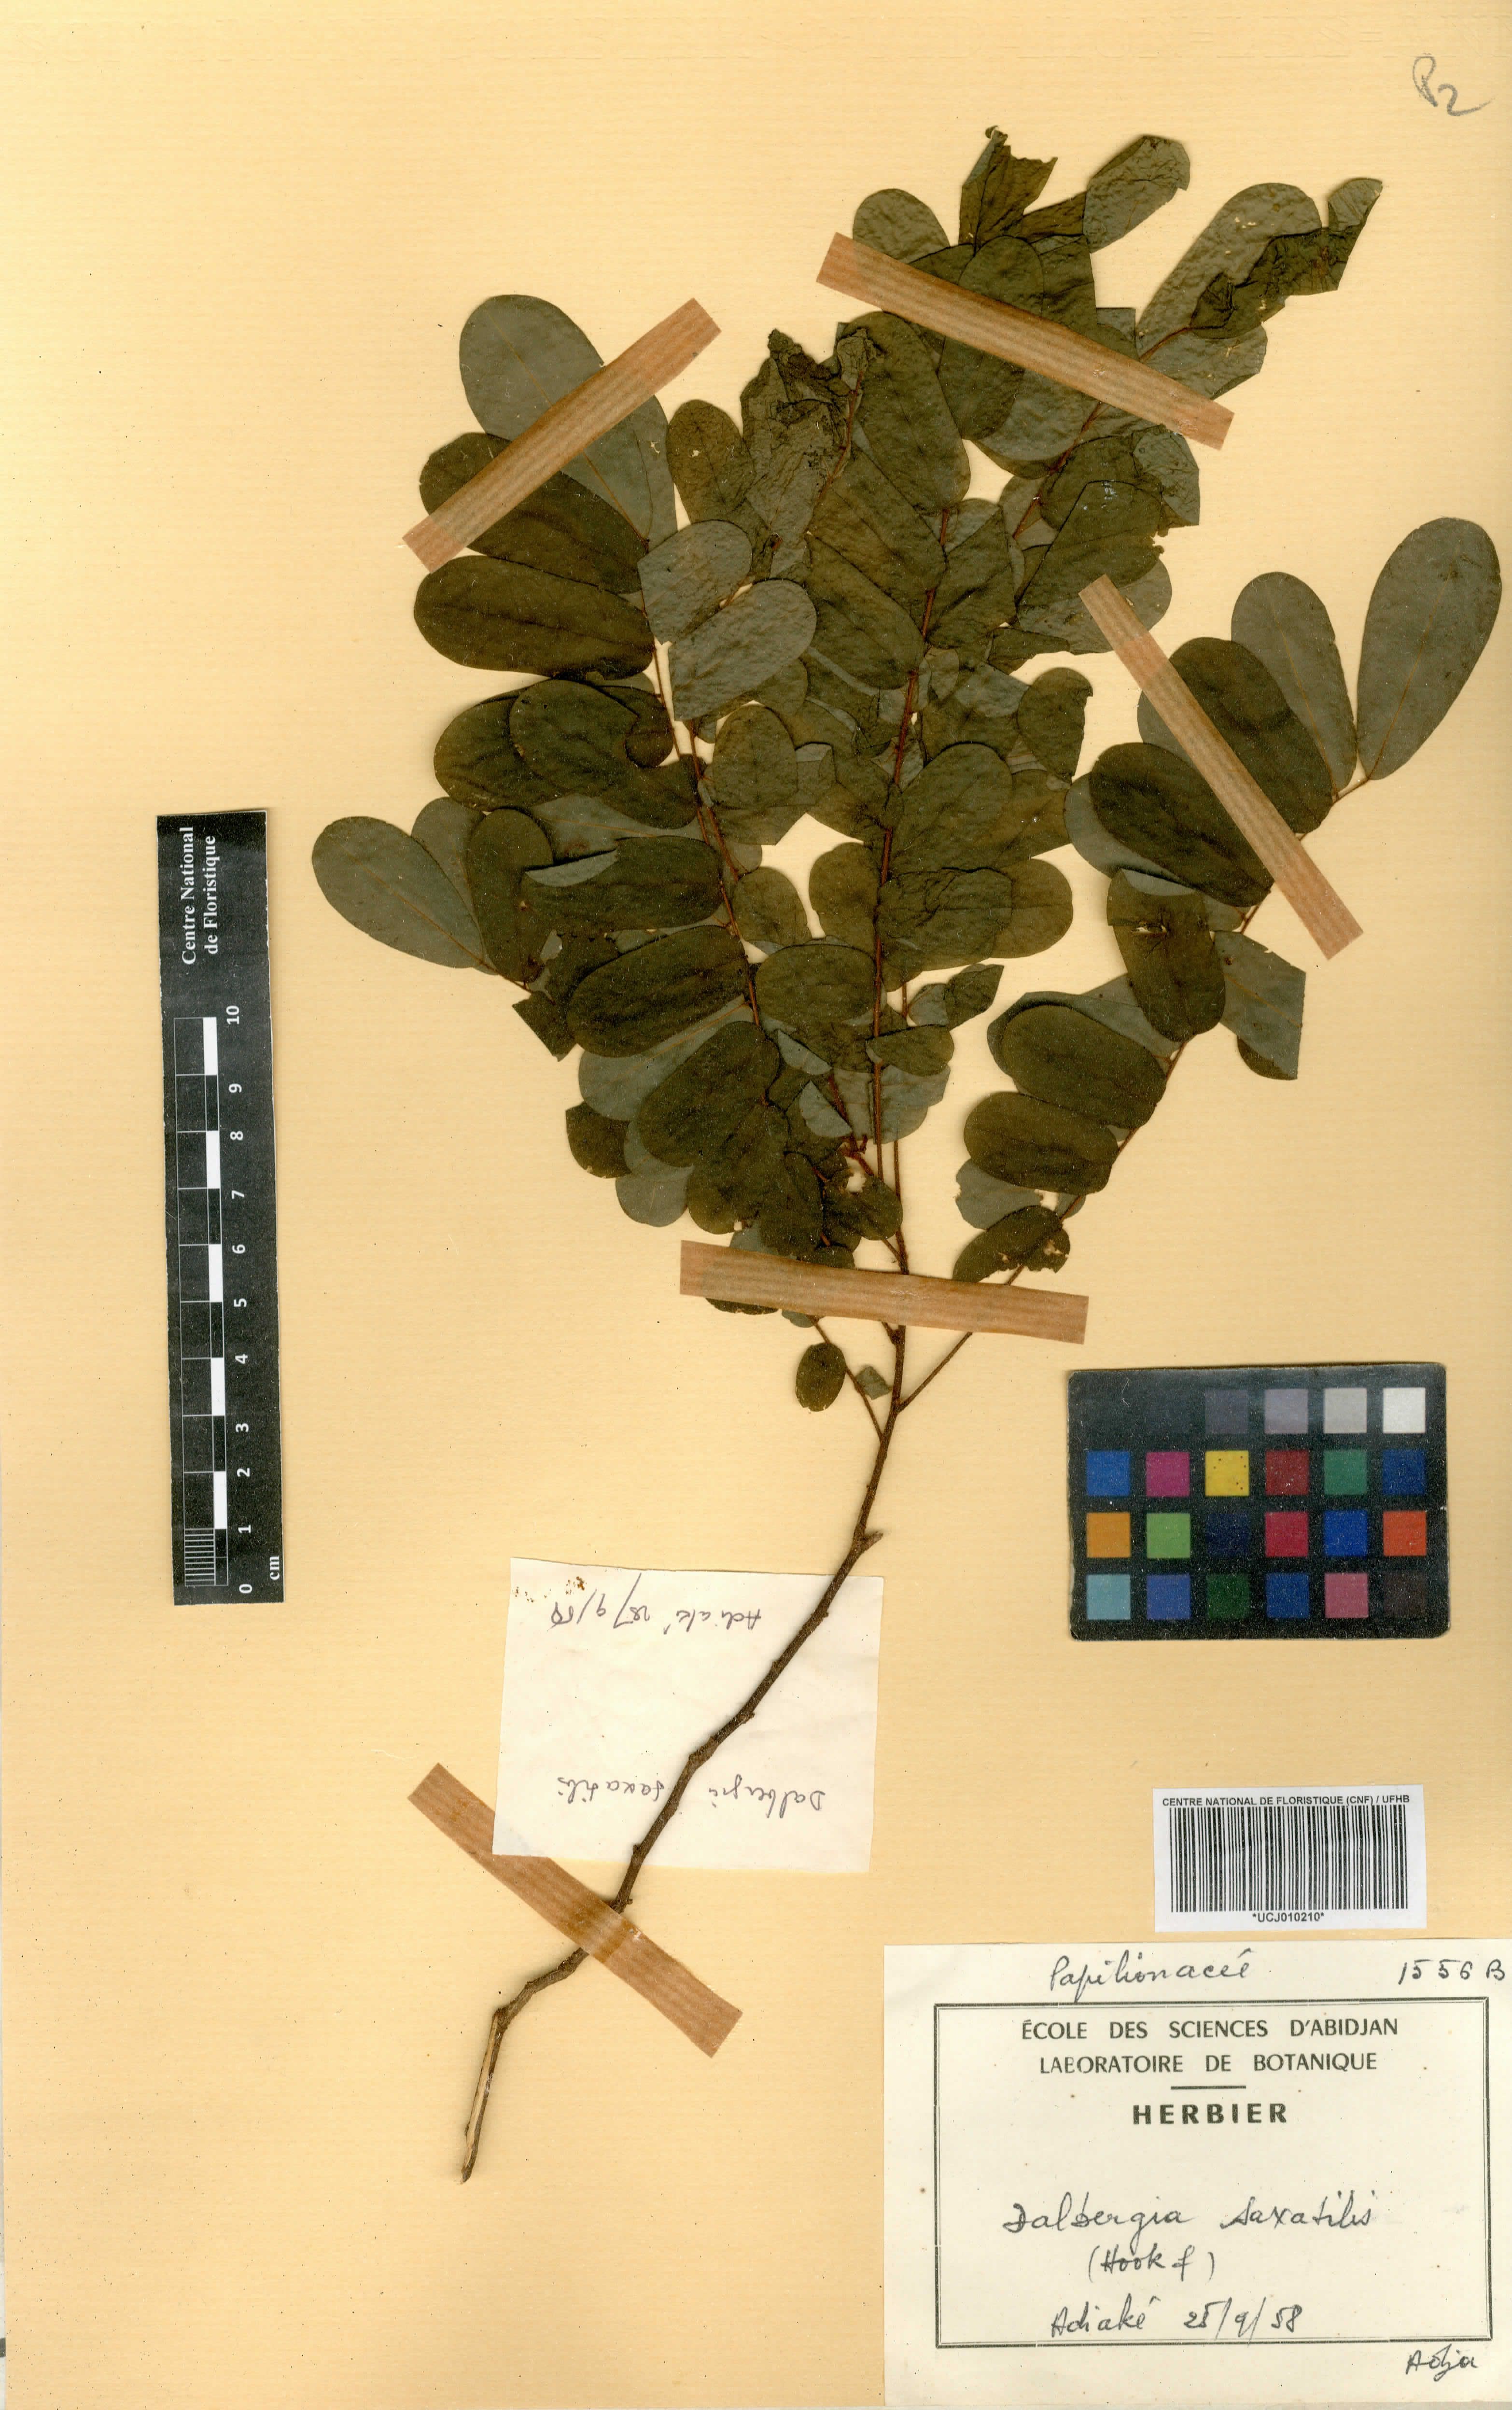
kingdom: Plantae
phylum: Tracheophyta
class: Magnoliopsida
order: Fabales
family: Fabaceae
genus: Dalbergia
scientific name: Dalbergia saxatilis
